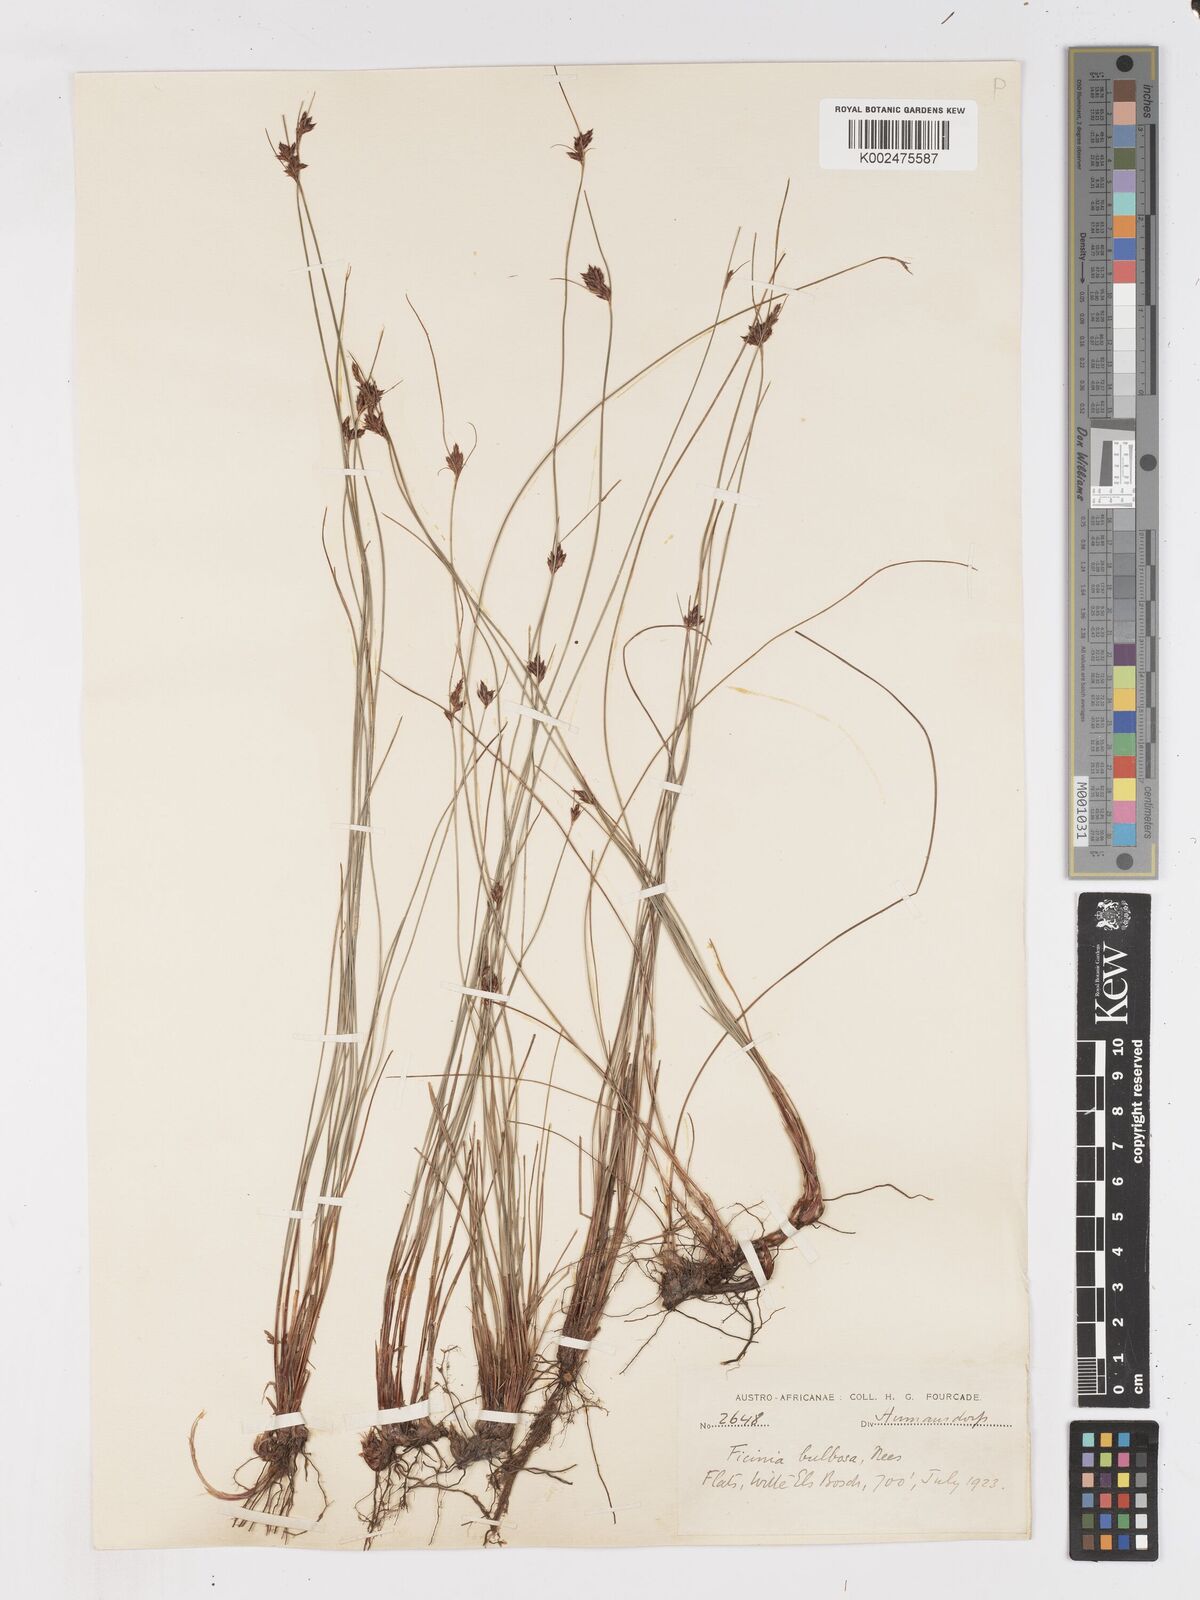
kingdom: Plantae
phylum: Tracheophyta
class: Liliopsida
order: Poales
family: Cyperaceae
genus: Ficinia
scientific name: Ficinia fascicularis
